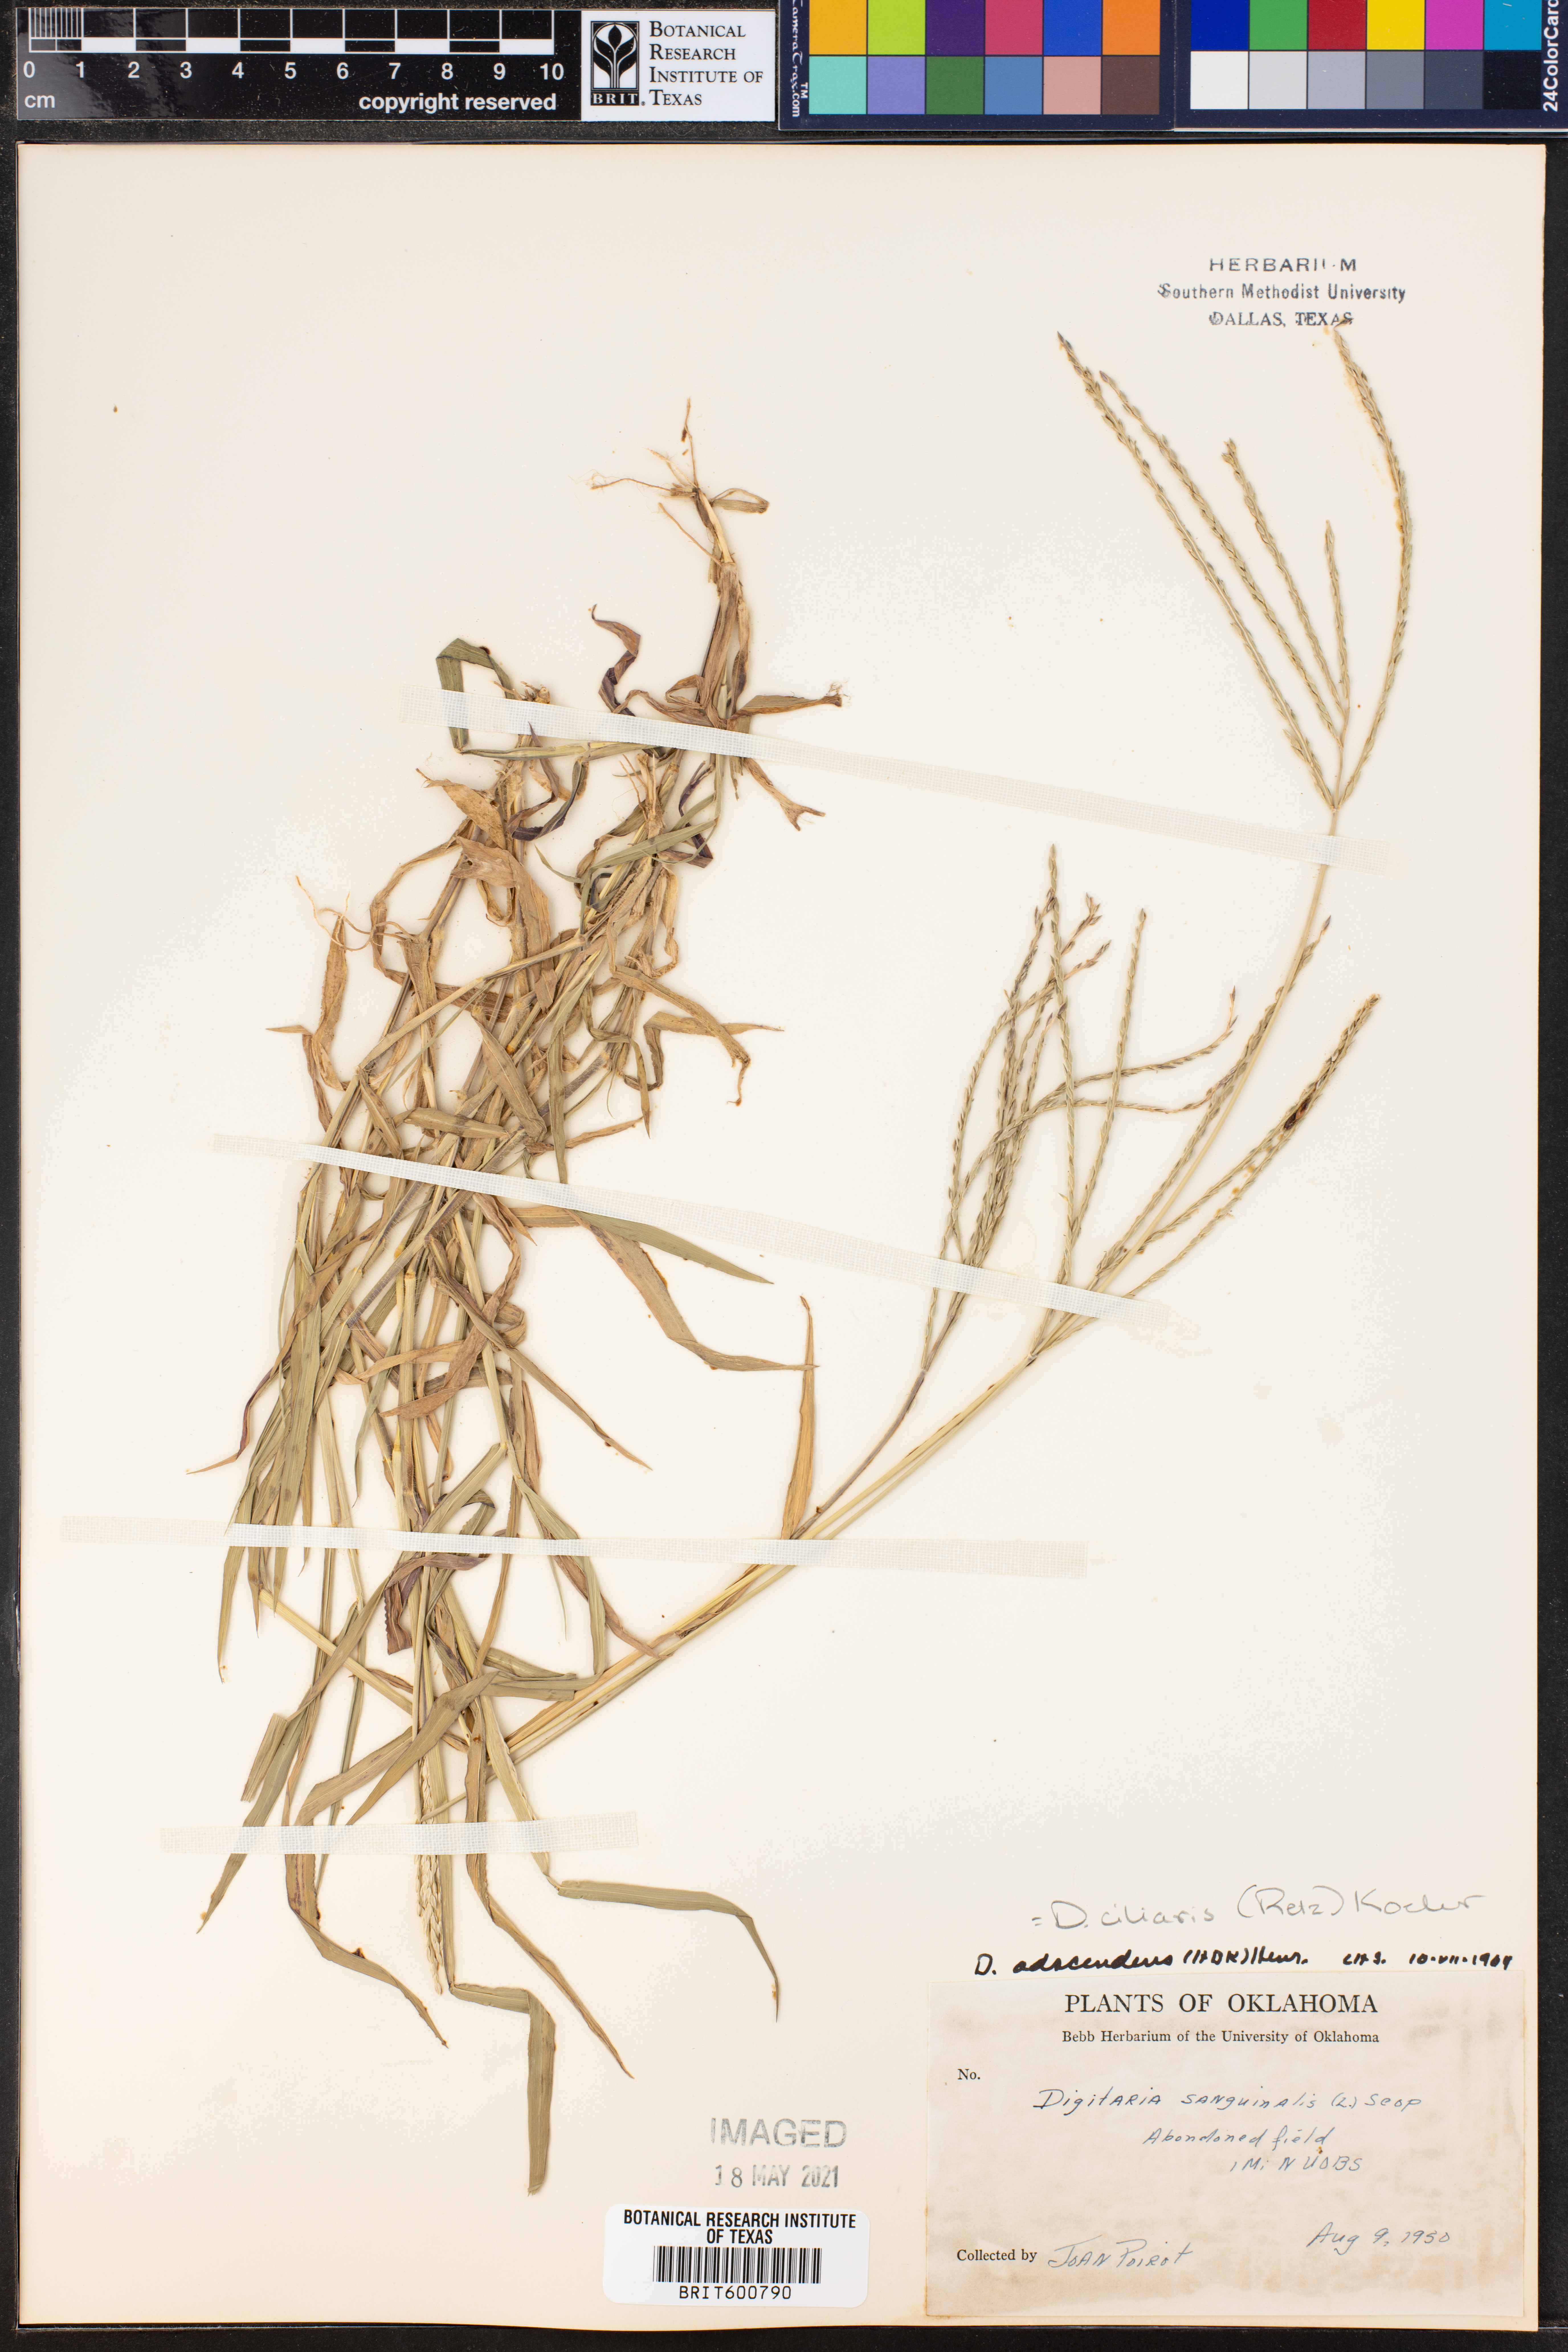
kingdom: Plantae
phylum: Tracheophyta
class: Liliopsida
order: Poales
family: Poaceae
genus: Digitaria
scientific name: Digitaria ciliaris
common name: Tropical finger-grass
